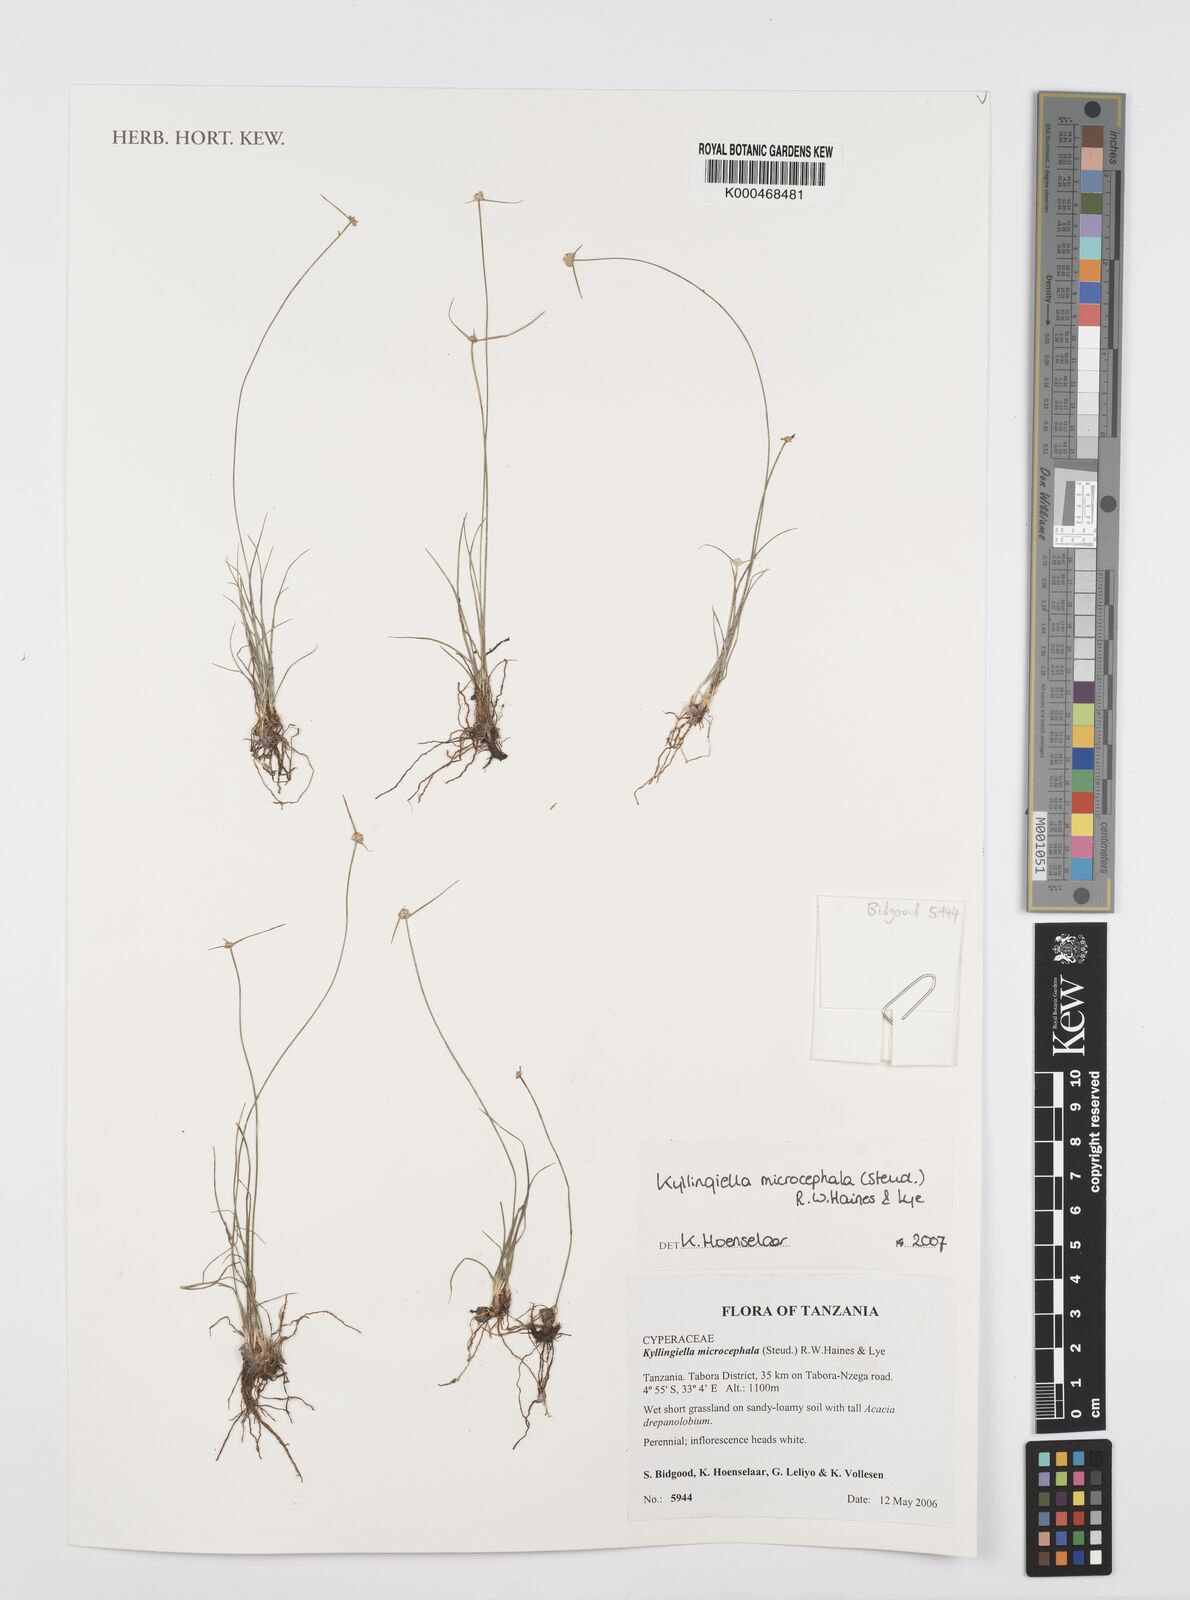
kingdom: Plantae
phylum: Tracheophyta
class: Liliopsida
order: Poales
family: Cyperaceae
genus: Cyperus
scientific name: Cyperus kyllingiella
